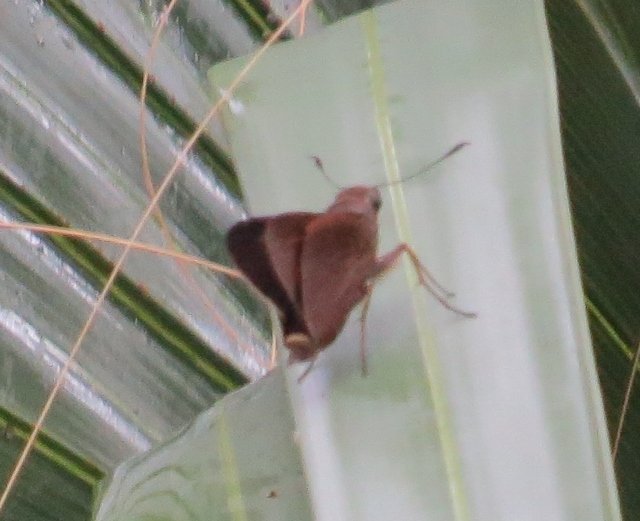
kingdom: Animalia
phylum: Arthropoda
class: Insecta
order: Lepidoptera
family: Hesperiidae
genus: Asbolis
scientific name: Asbolis capucinus
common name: Monk Skipper
